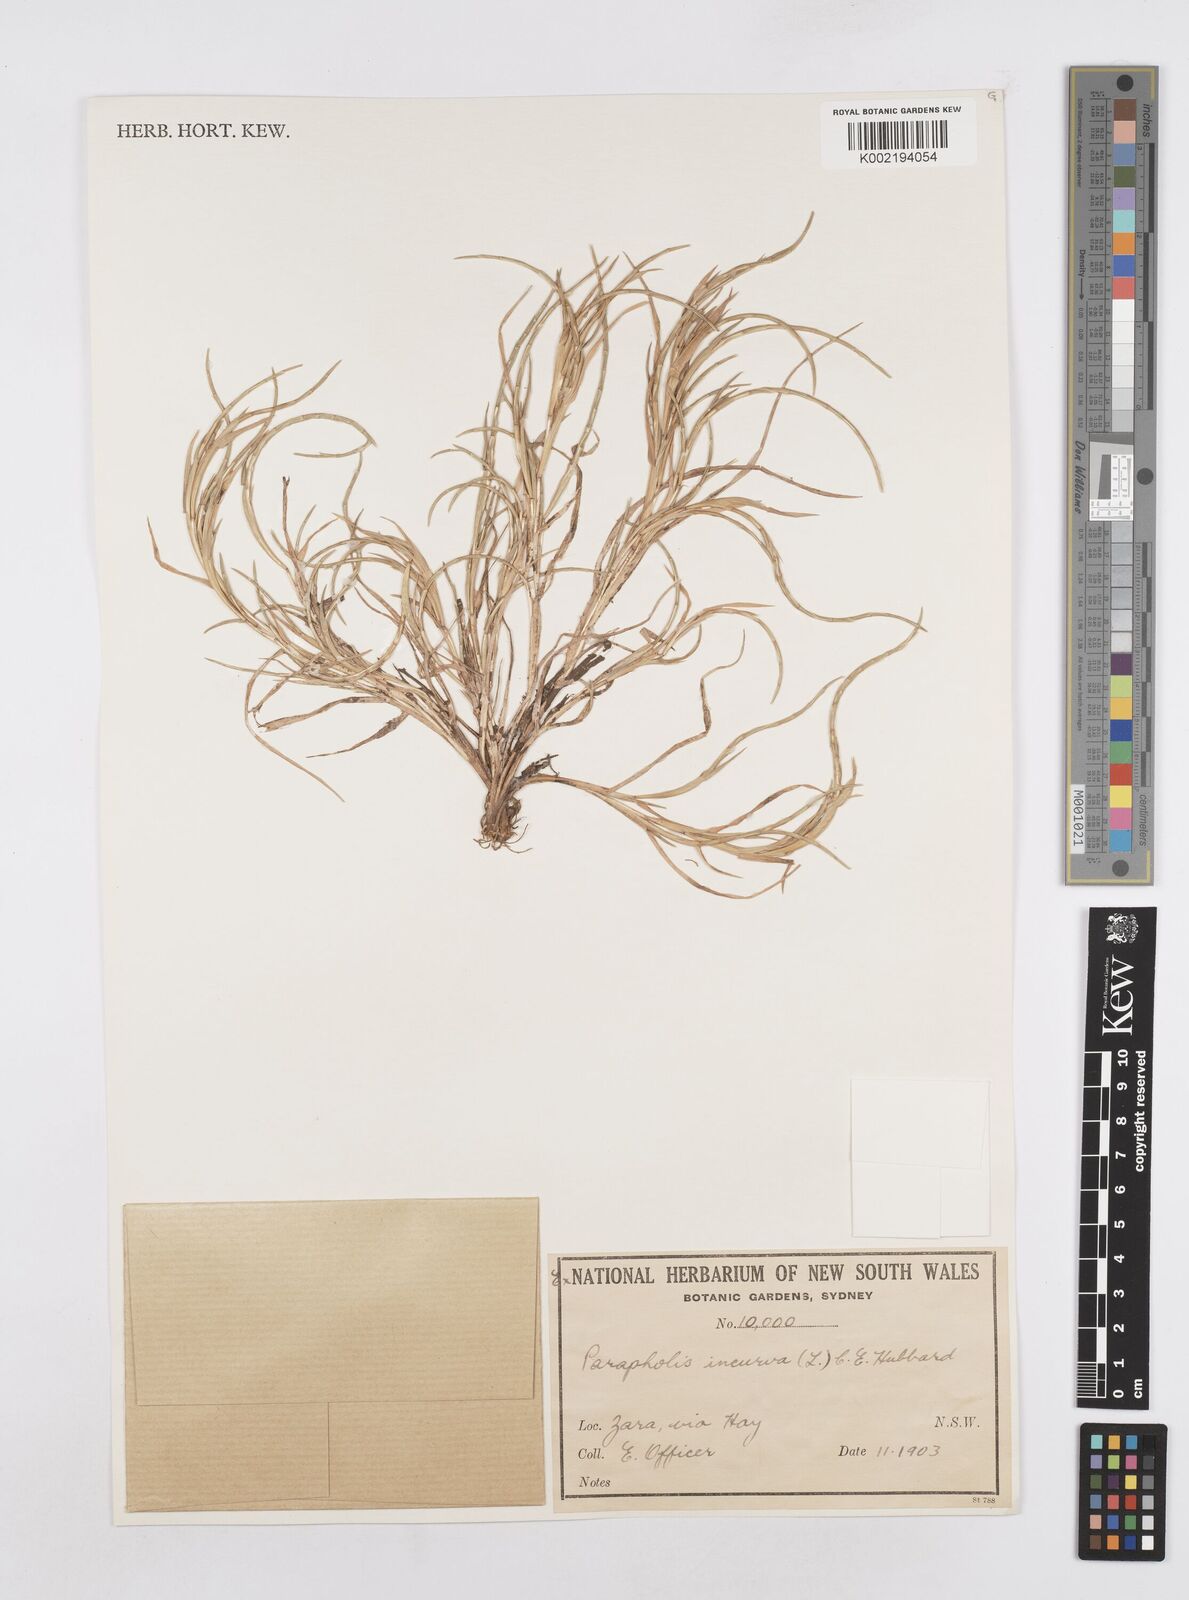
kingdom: Plantae
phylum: Tracheophyta
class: Liliopsida
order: Poales
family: Poaceae
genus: Parapholis
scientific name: Parapholis incurva
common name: Curved sicklegrass
